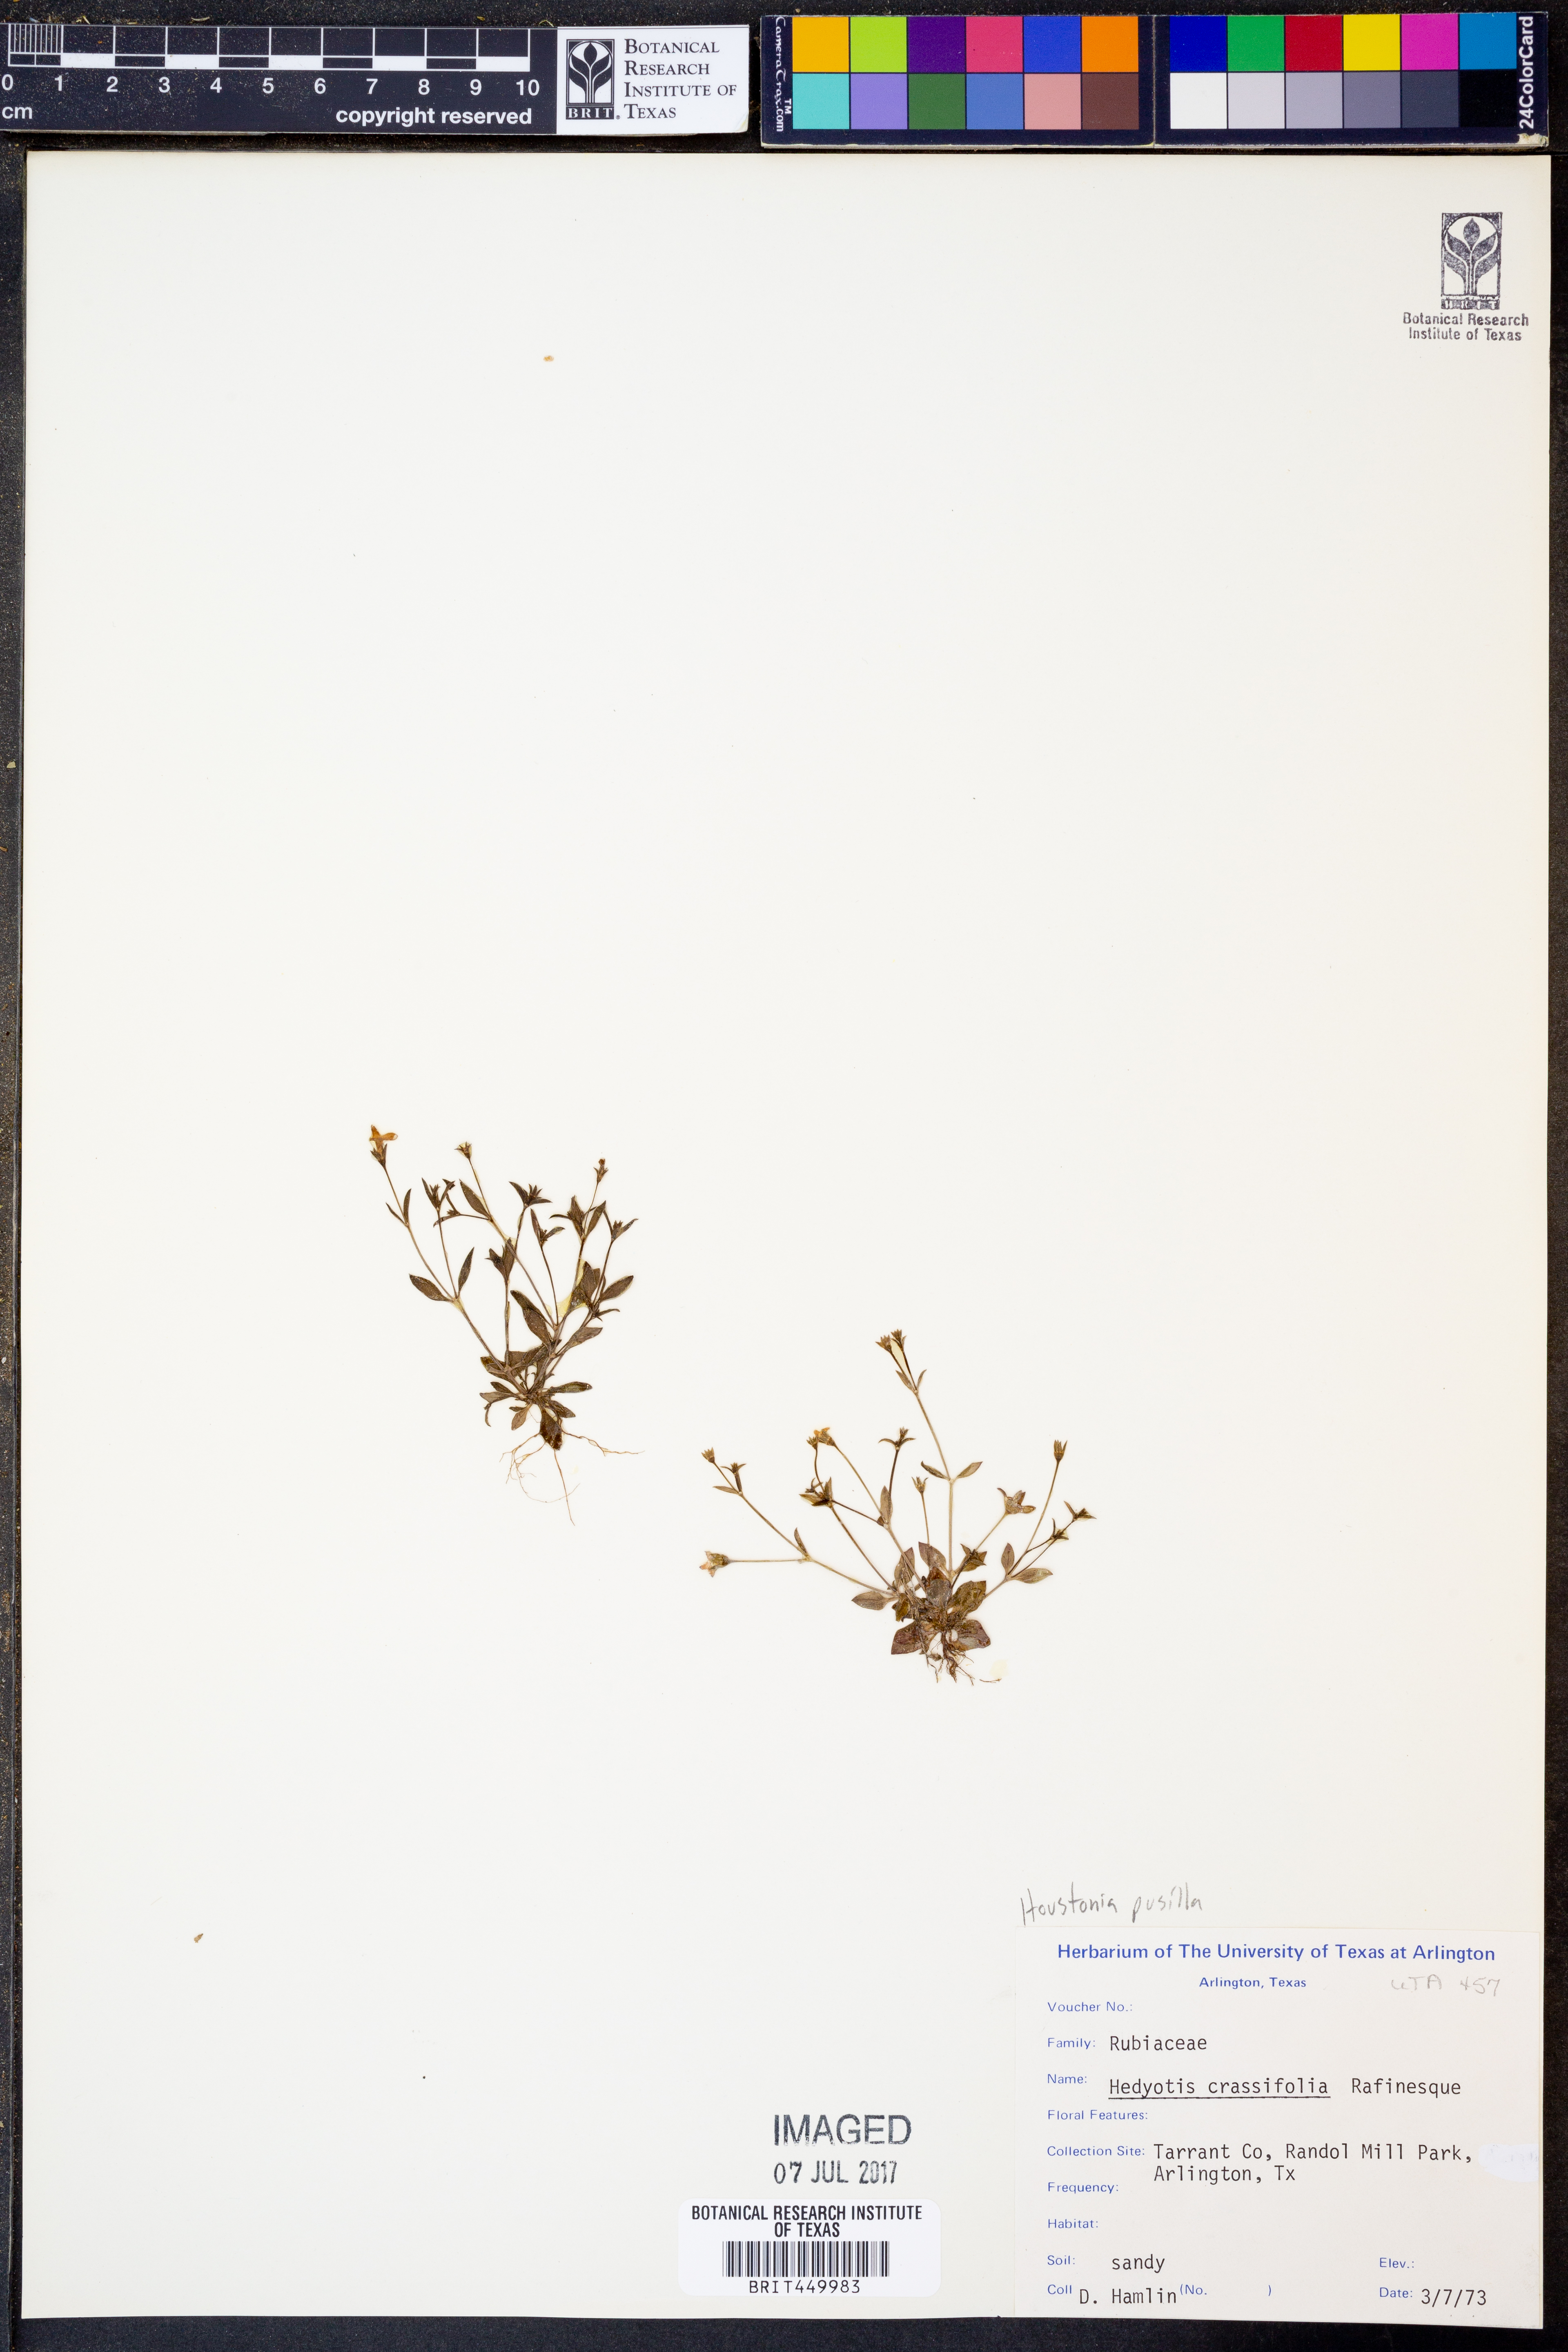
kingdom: Plantae
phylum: Tracheophyta
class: Magnoliopsida
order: Gentianales
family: Rubiaceae
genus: Houstonia
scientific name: Houstonia pusilla
